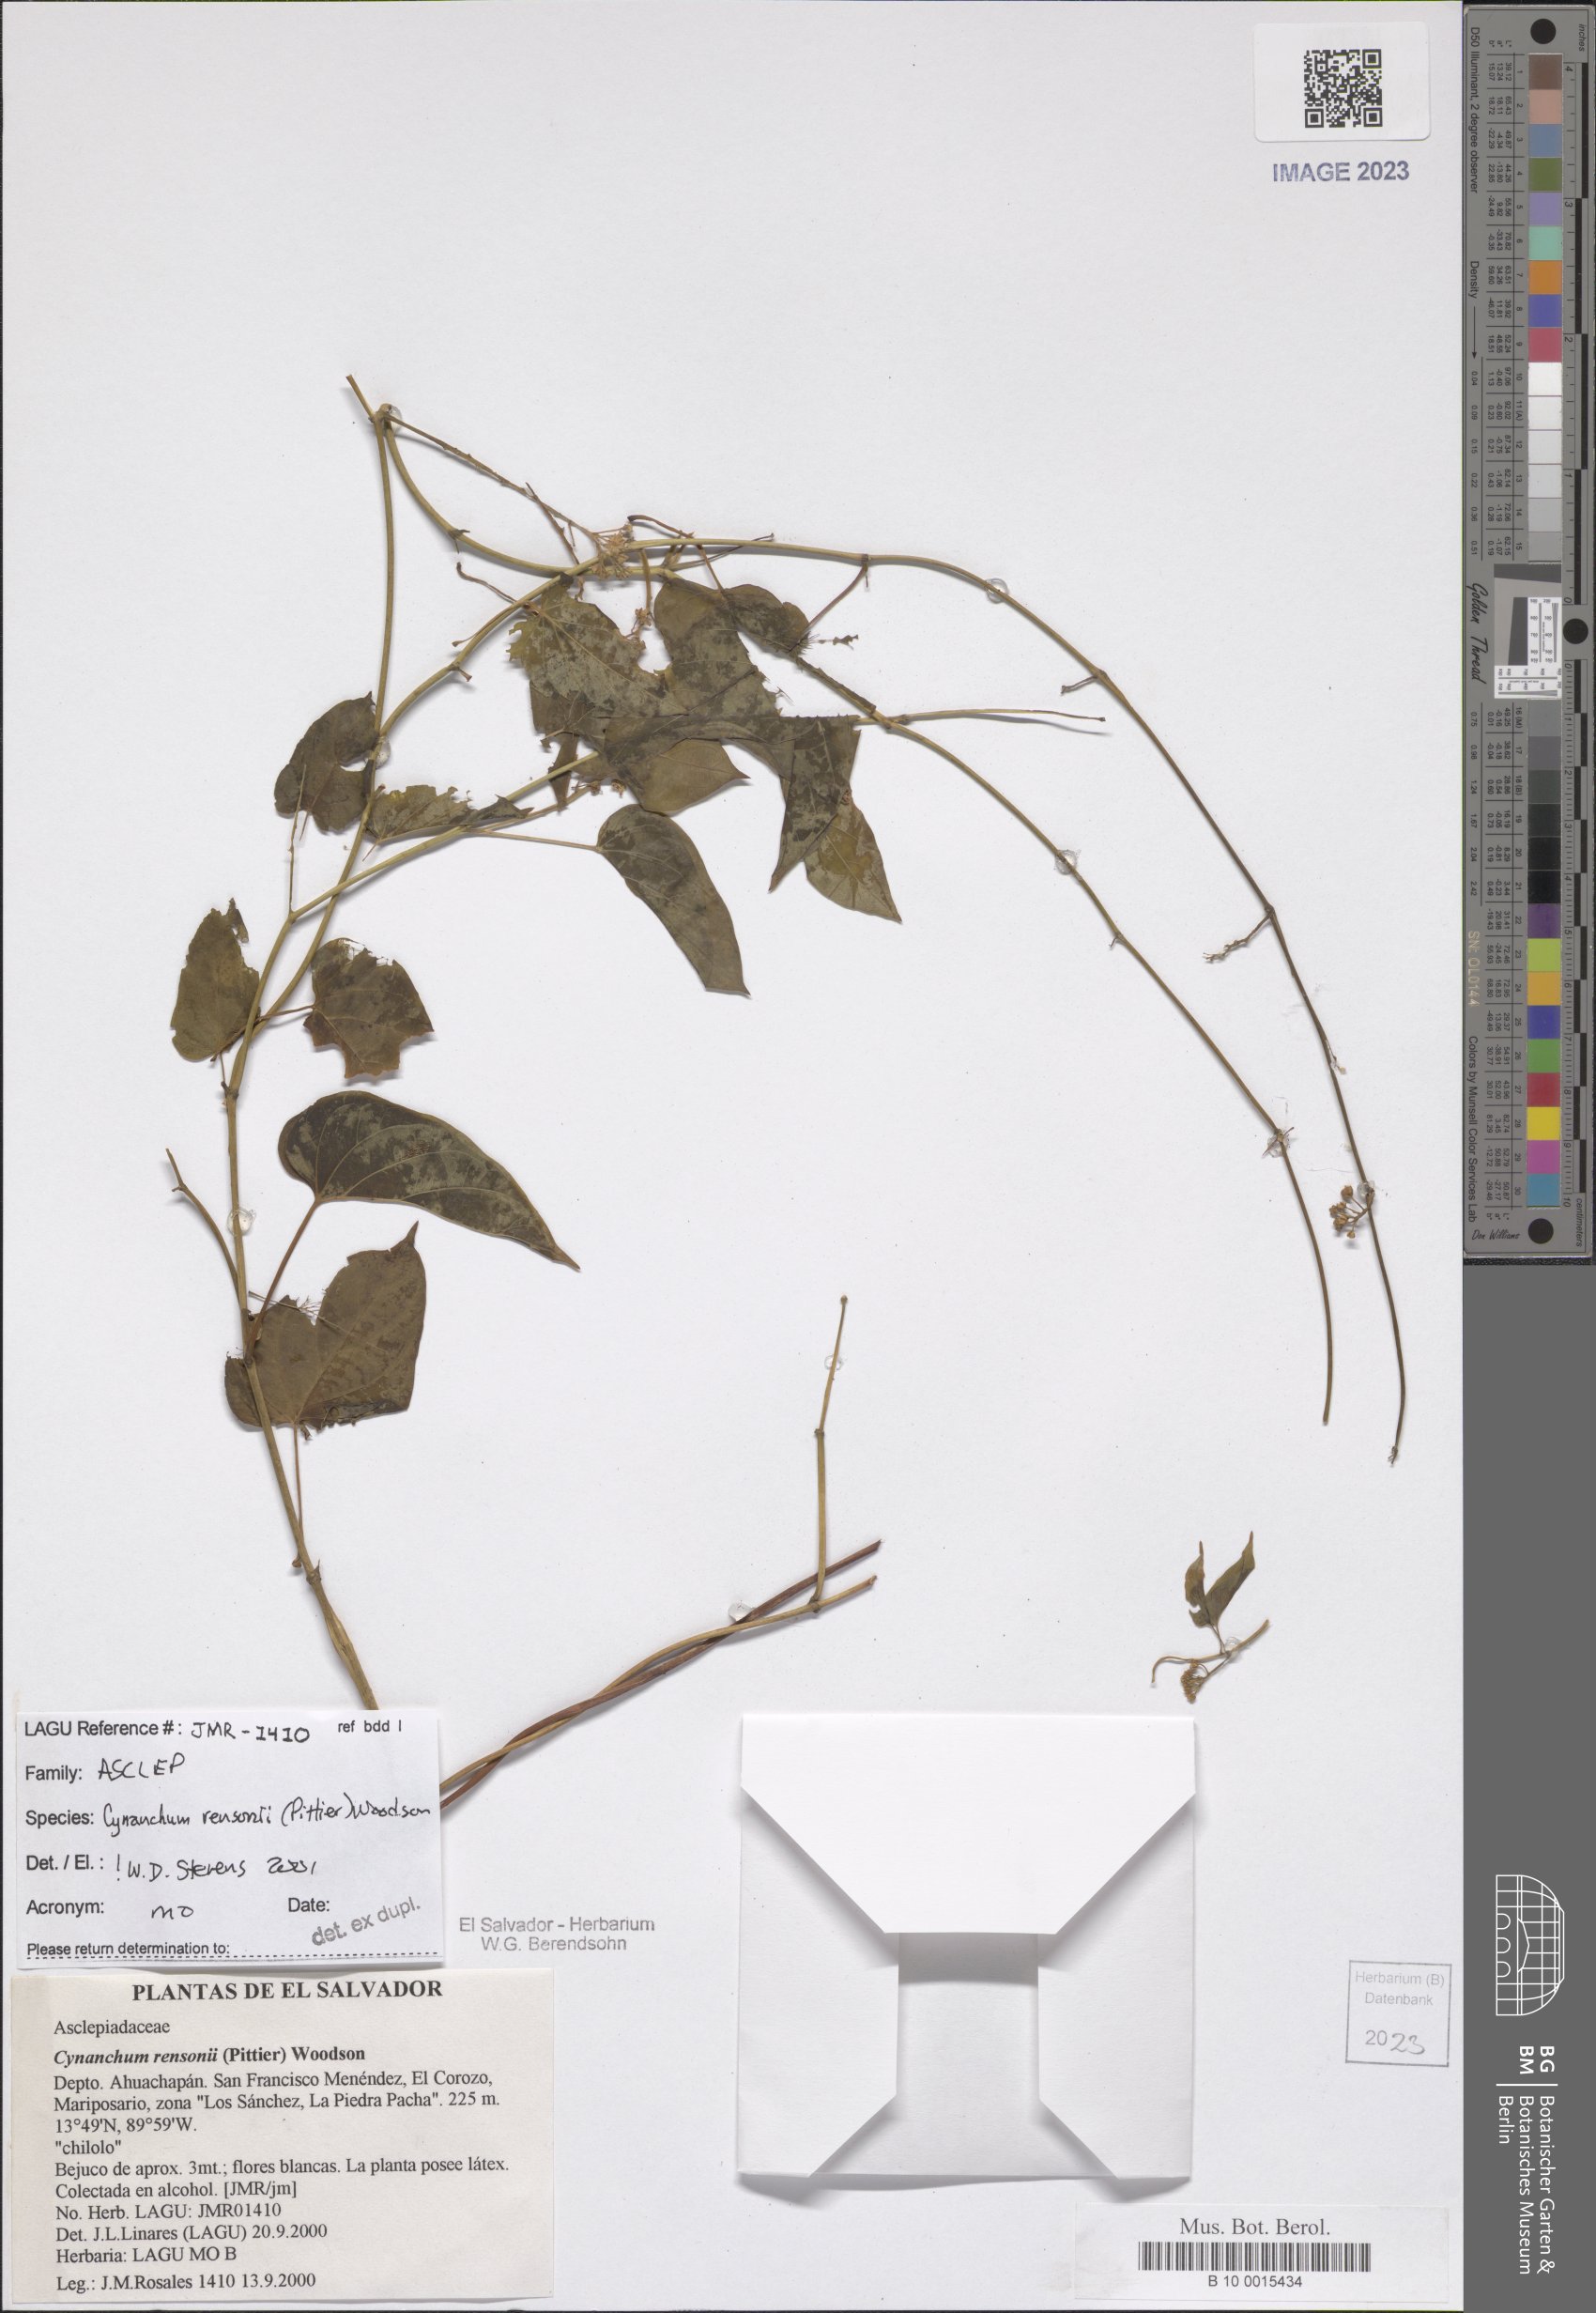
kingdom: Plantae
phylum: Tracheophyta
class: Magnoliopsida
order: Gentianales
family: Apocynaceae
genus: Cynanchum
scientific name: Cynanchum rensonii
